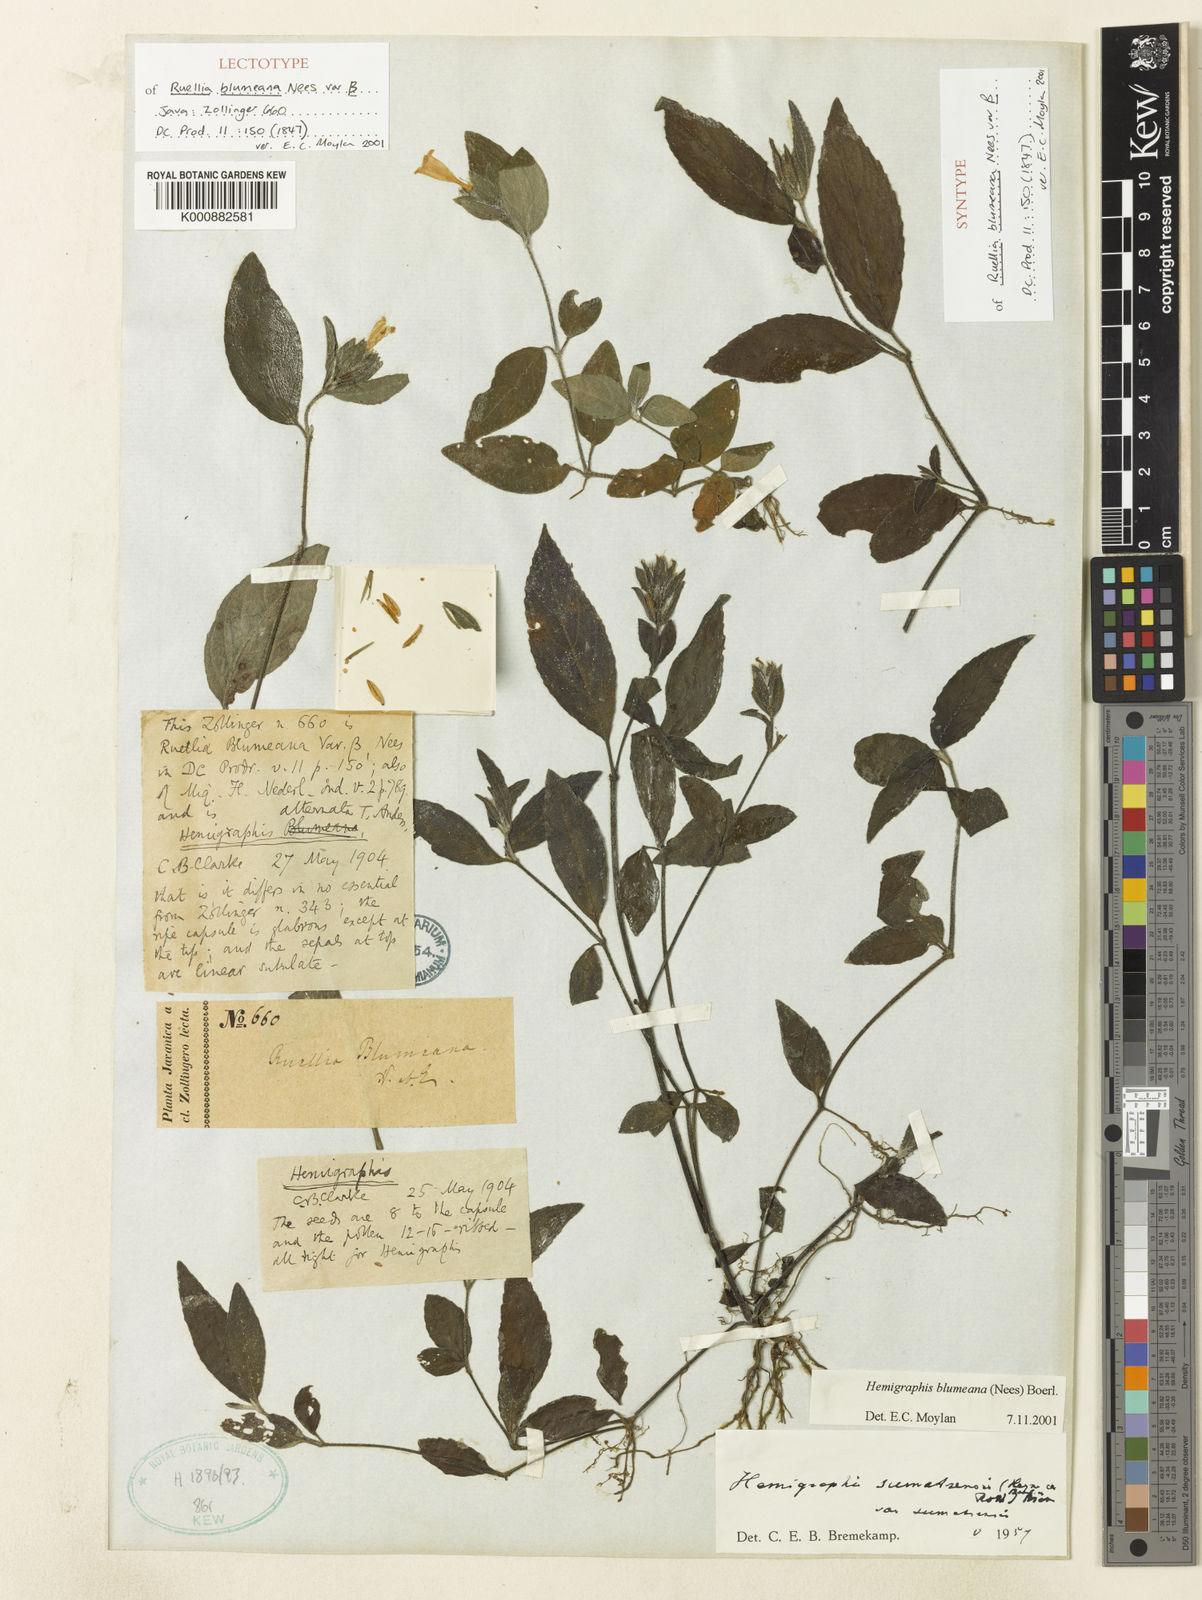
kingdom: Plantae
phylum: Tracheophyta
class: Magnoliopsida
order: Lamiales
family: Acanthaceae
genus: Strobilanthes
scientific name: Strobilanthes blumeana
